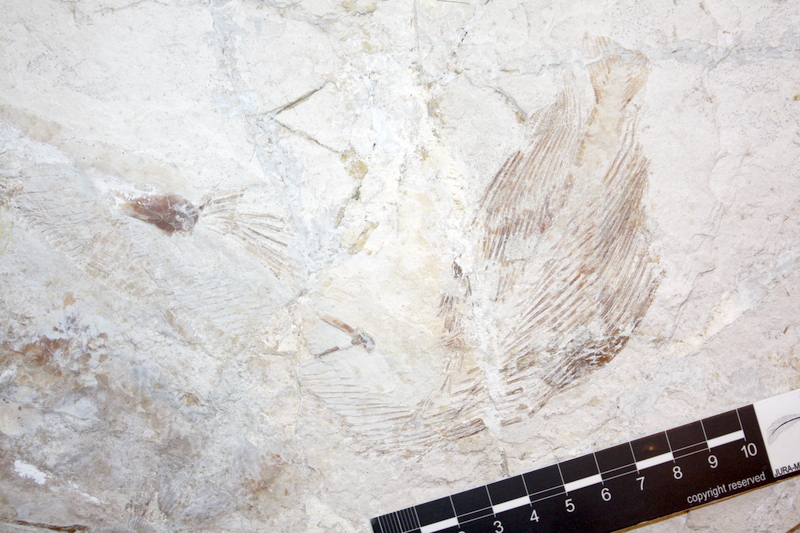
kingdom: Animalia
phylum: Chordata
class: Coelacanthi
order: Coelacanthiformes
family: Latimeriidae
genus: Coccoderma
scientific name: Coccoderma
